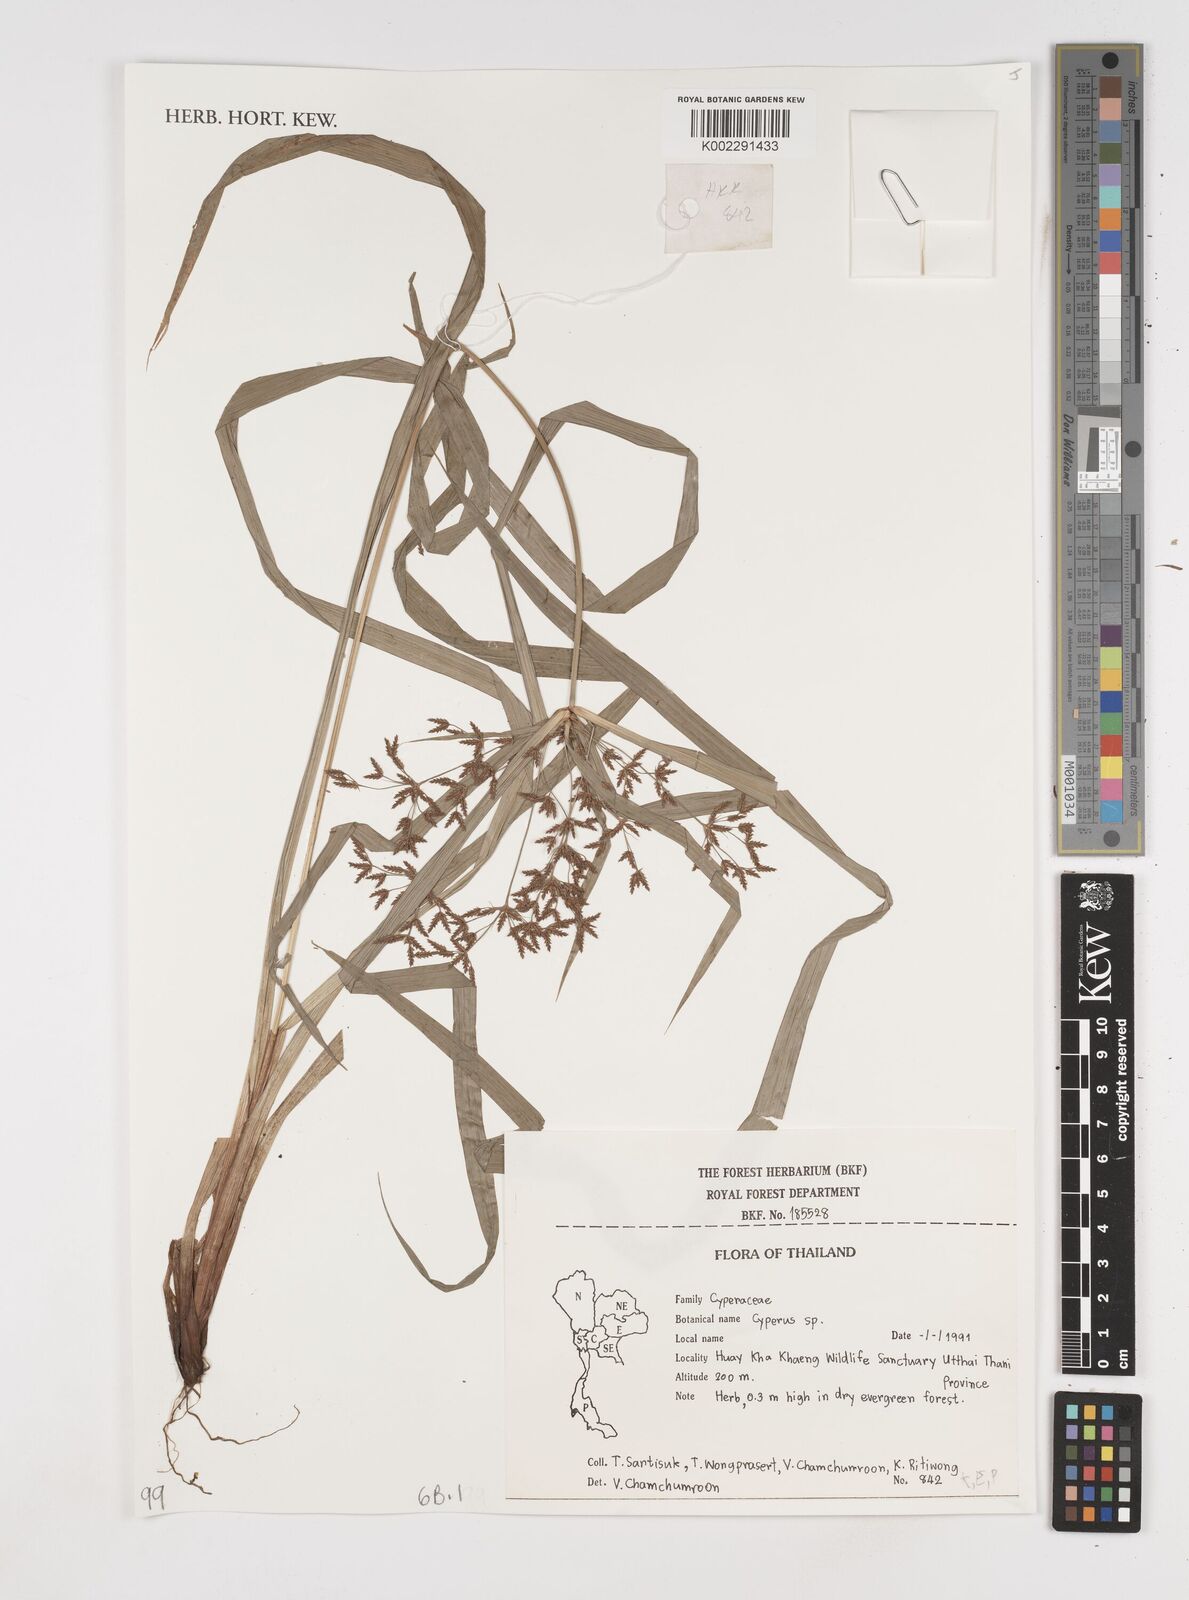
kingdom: Plantae
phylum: Tracheophyta
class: Liliopsida
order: Poales
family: Cyperaceae
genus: Cyperus
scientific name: Cyperus
